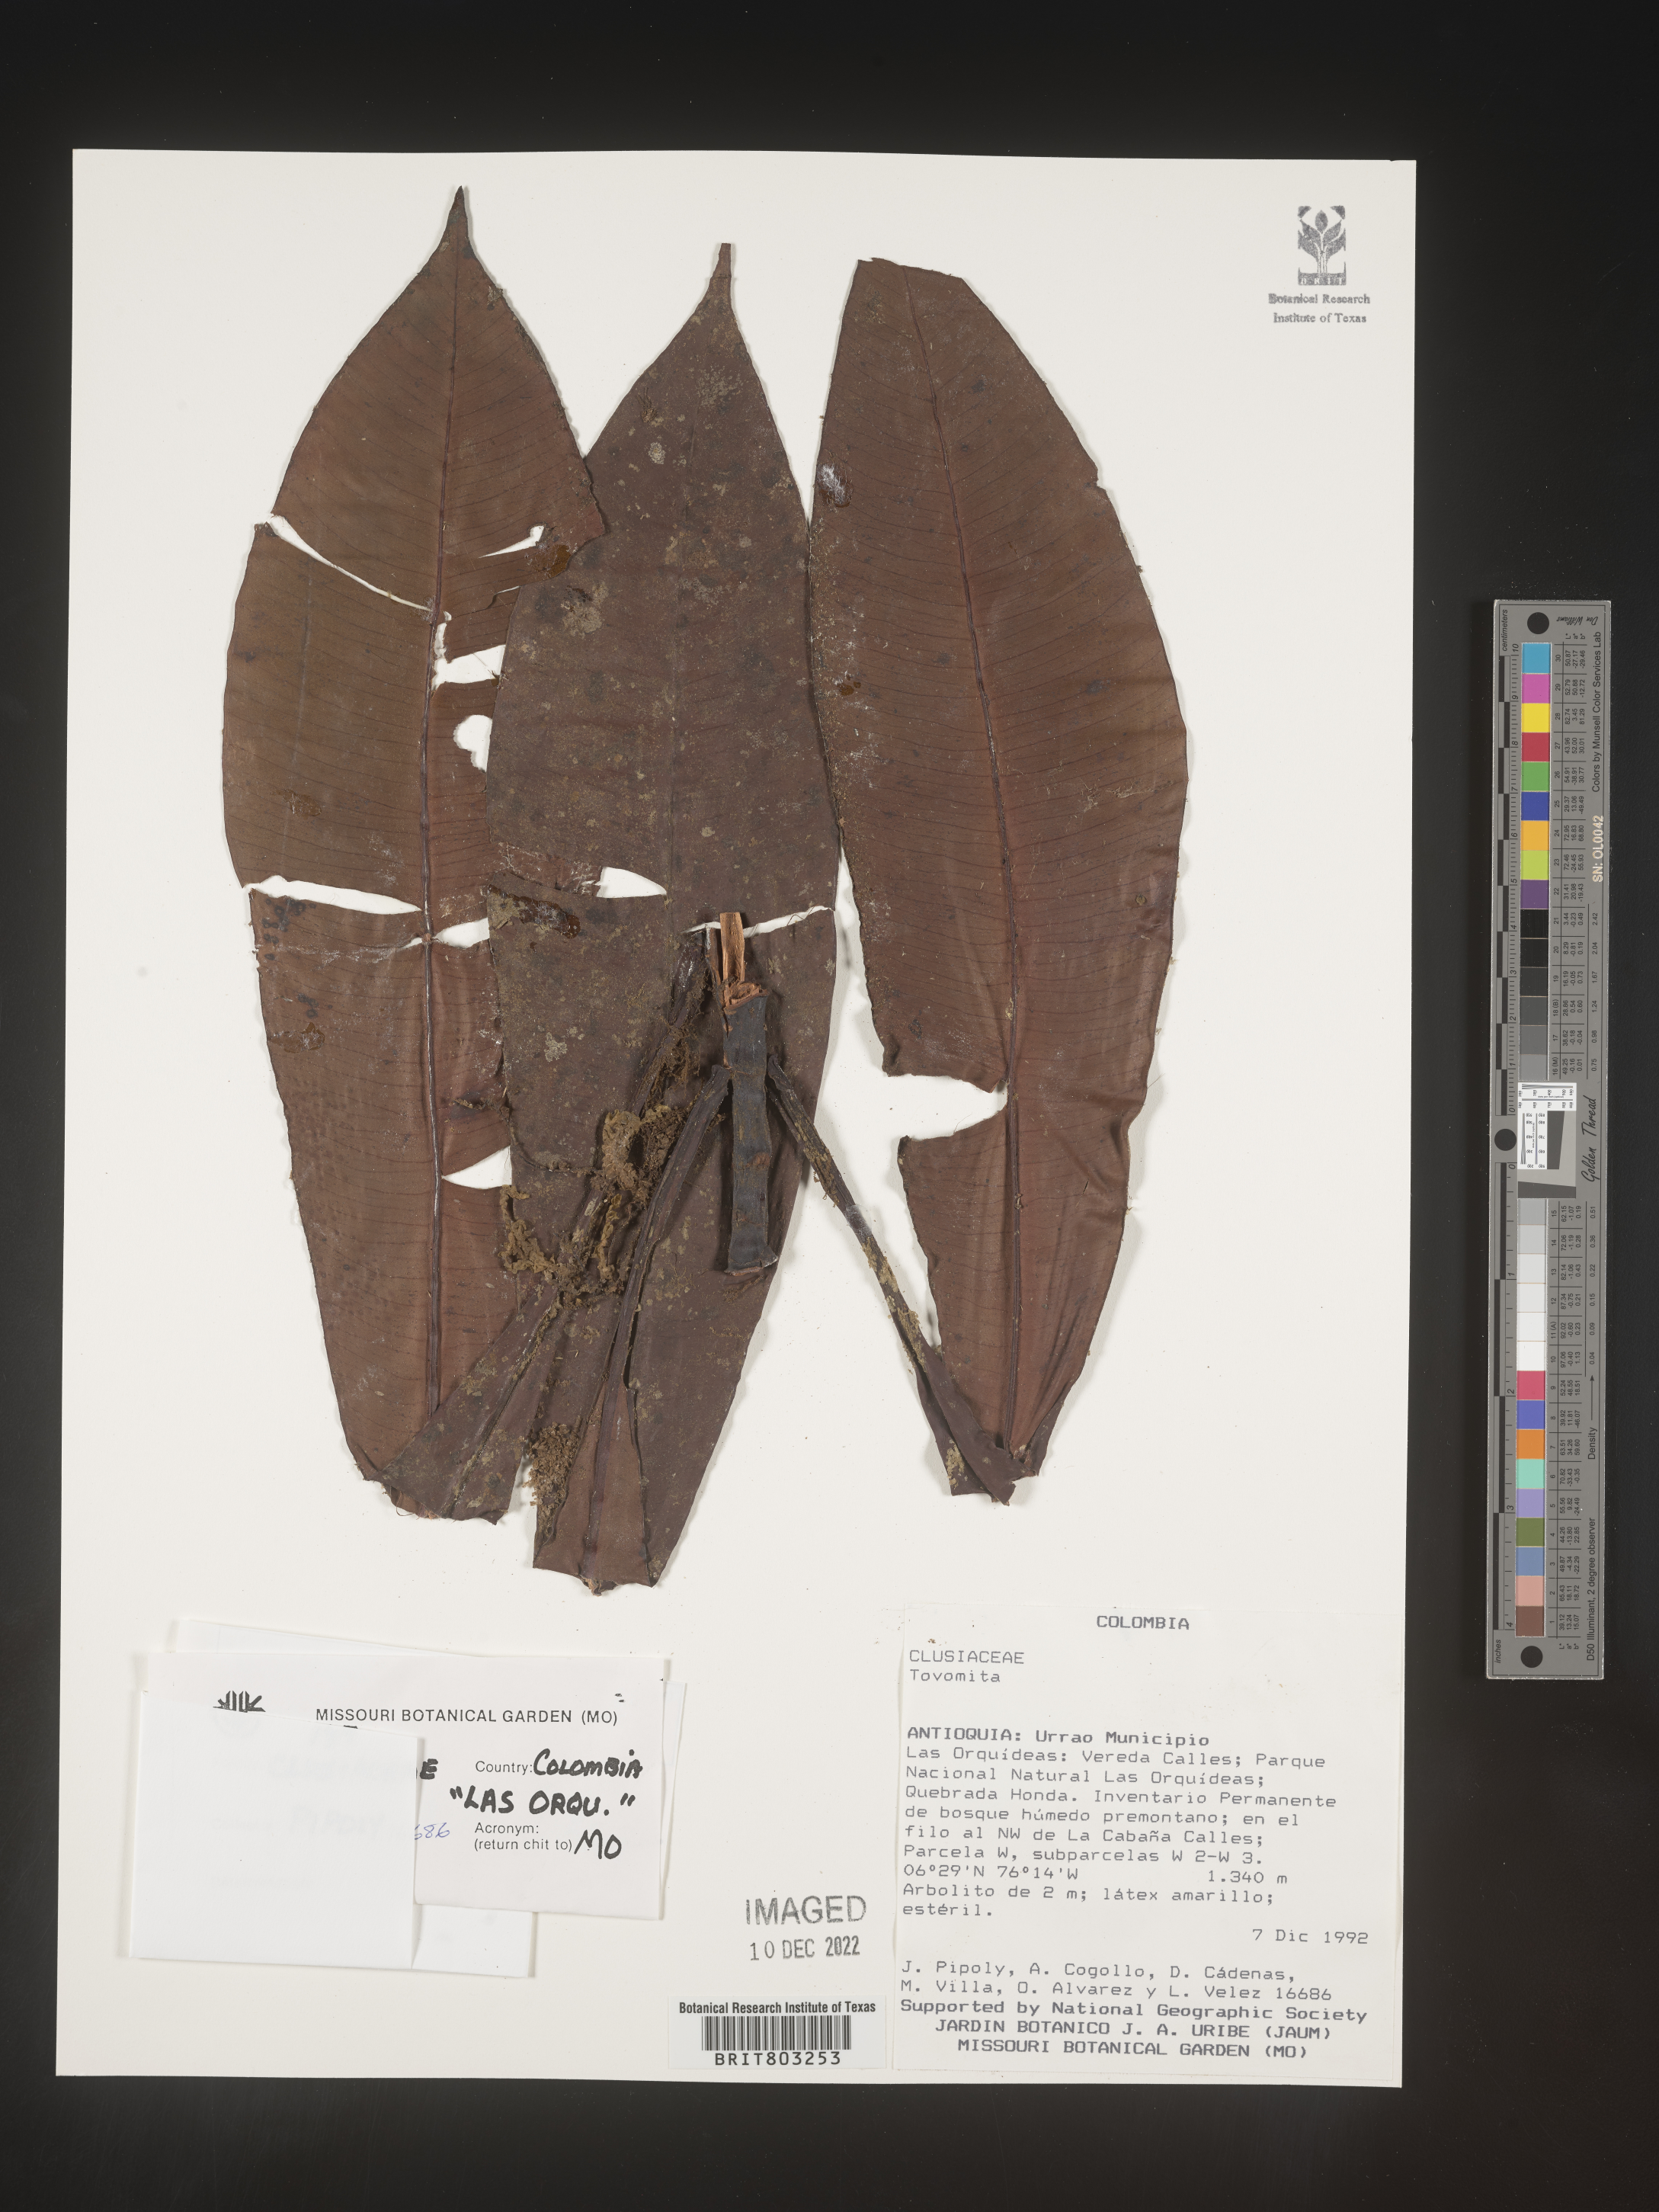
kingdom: Plantae
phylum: Tracheophyta
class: Magnoliopsida
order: Malpighiales
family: Clusiaceae
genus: Tovomita
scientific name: Tovomita
